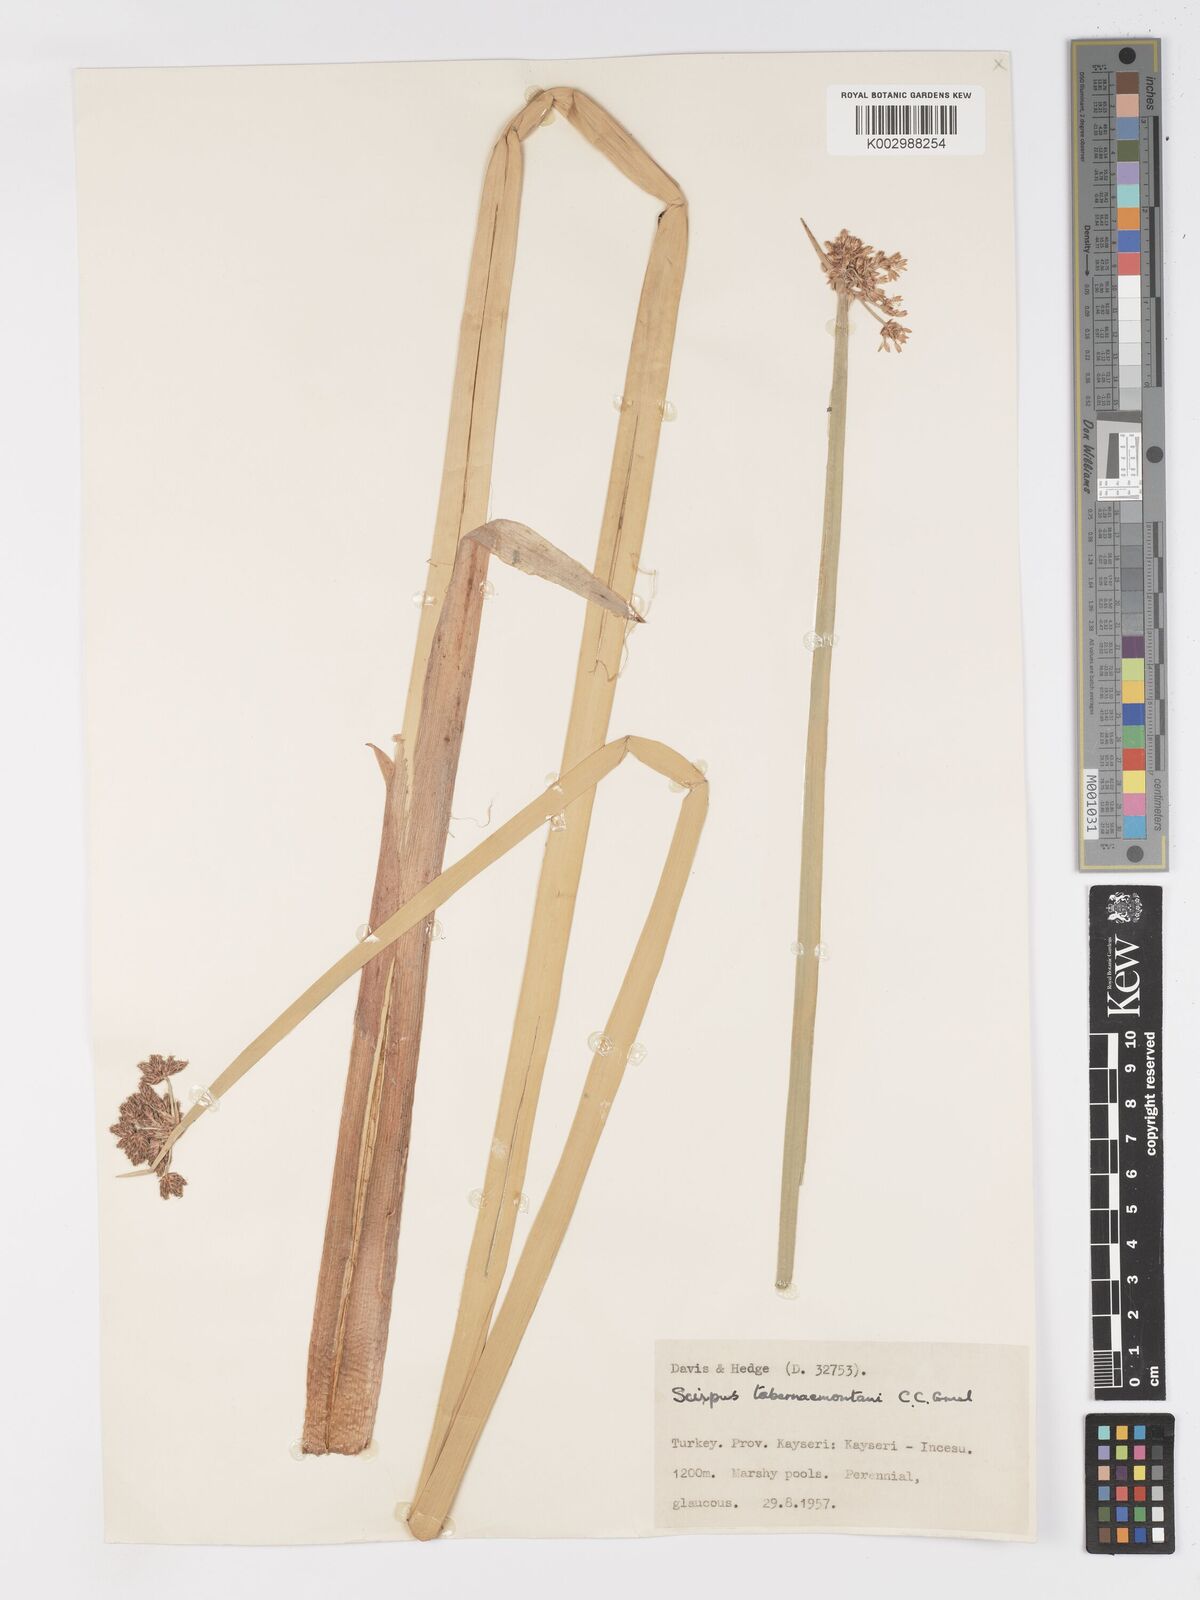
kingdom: Plantae
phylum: Tracheophyta
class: Liliopsida
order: Poales
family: Cyperaceae
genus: Schoenoplectus
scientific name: Schoenoplectus tabernaemontani
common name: Grey club-rush
